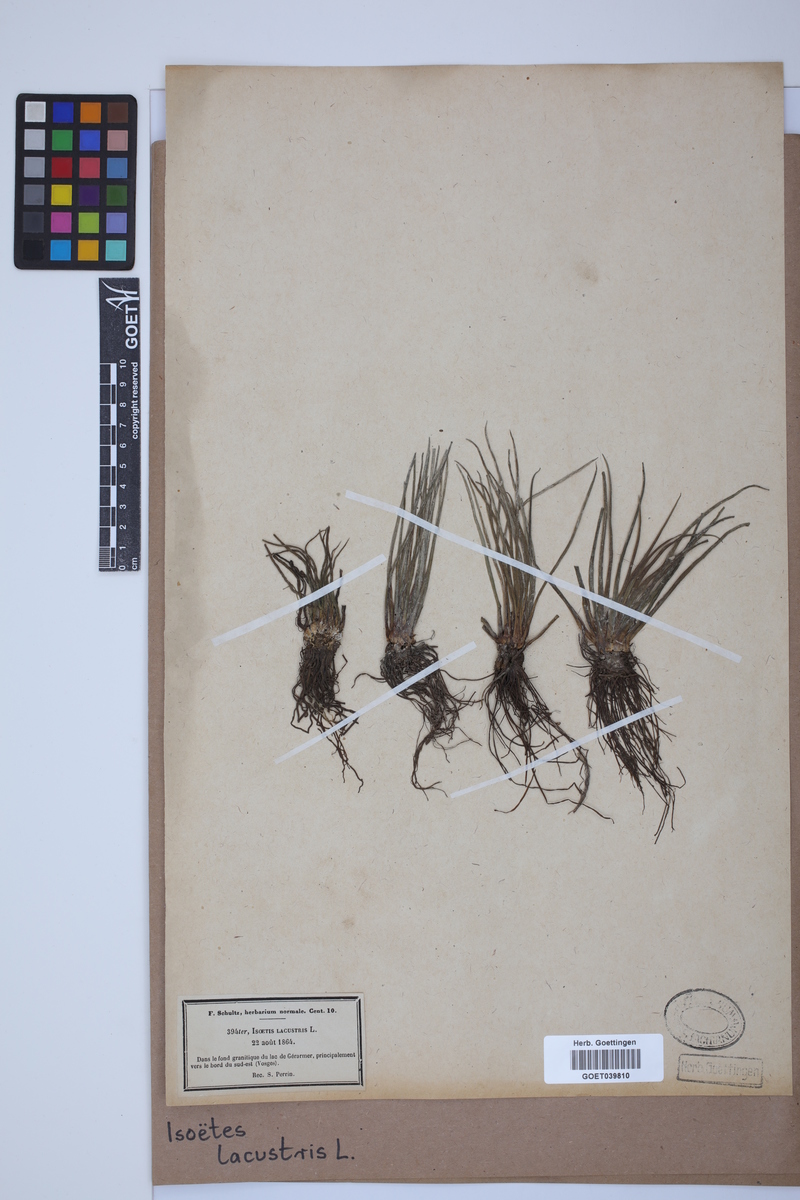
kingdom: Plantae
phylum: Tracheophyta
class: Lycopodiopsida
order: Isoetales
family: Isoetaceae
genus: Isoetes
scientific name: Isoetes lacustris
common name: Common quillwort
